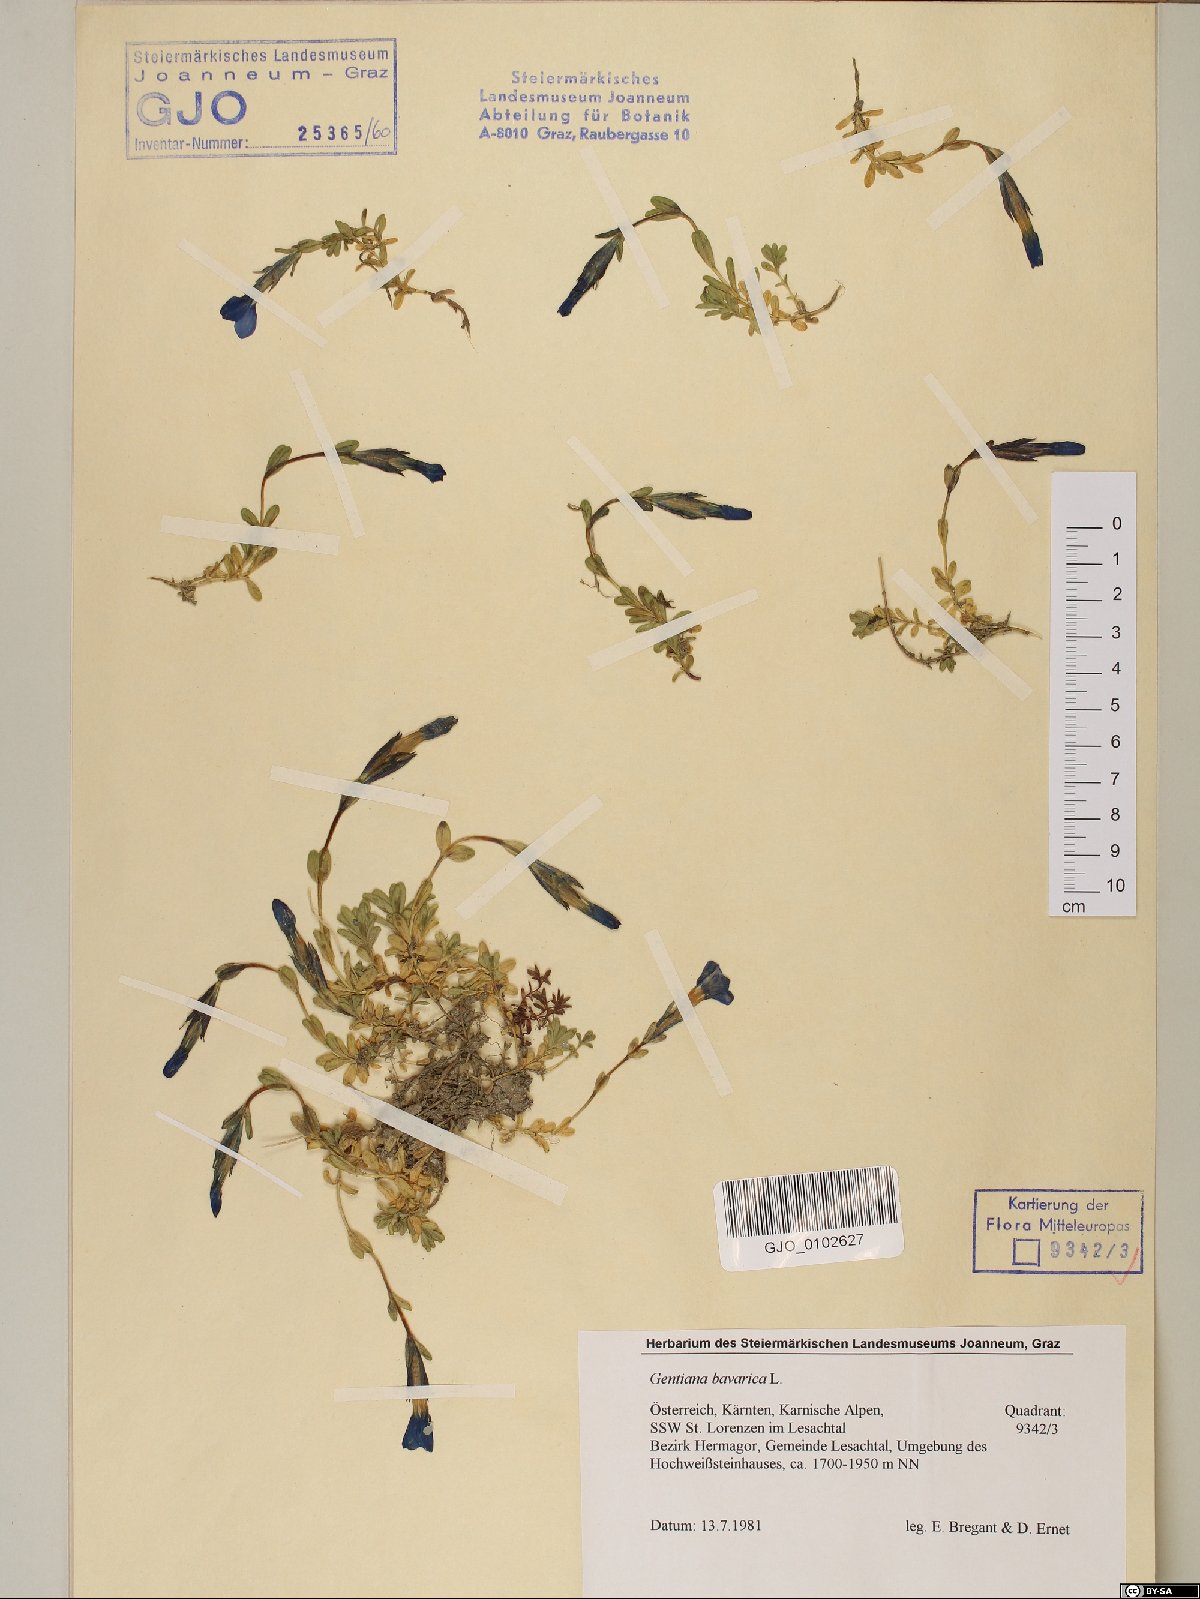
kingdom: Plantae
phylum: Tracheophyta
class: Magnoliopsida
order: Gentianales
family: Gentianaceae
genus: Gentiana
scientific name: Gentiana bavarica
